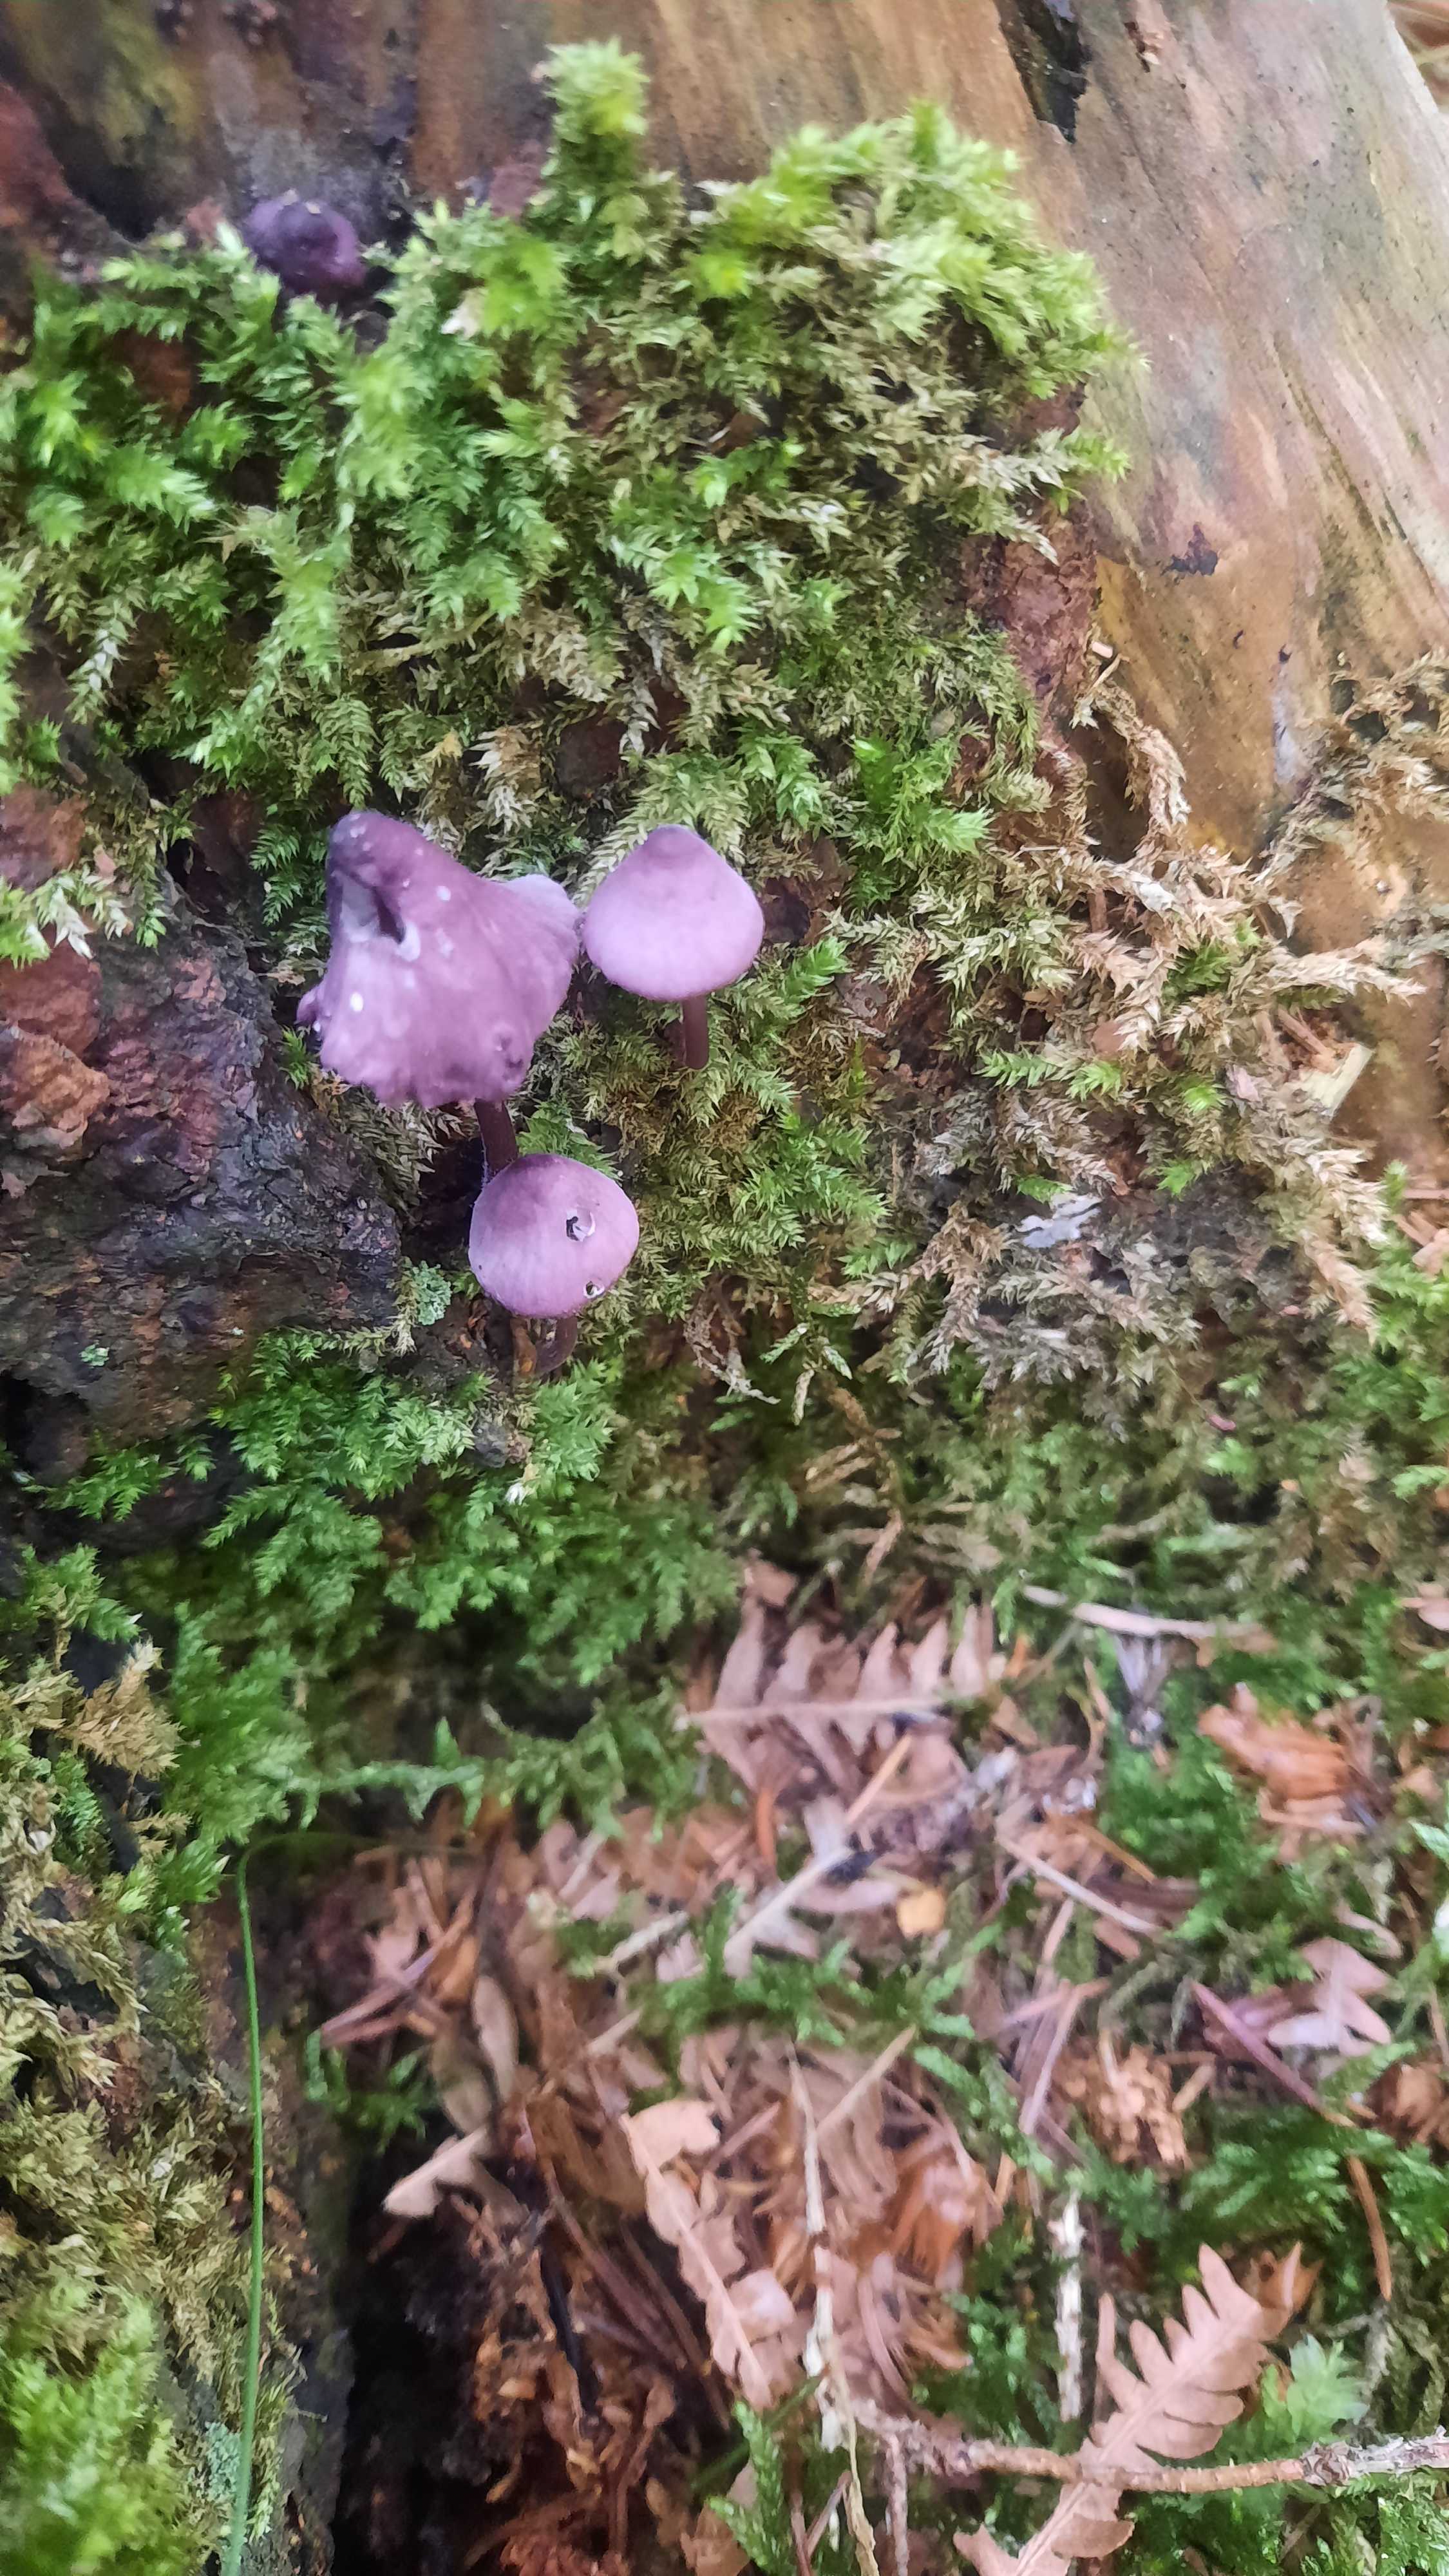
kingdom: Fungi
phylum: Basidiomycota
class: Agaricomycetes
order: Agaricales
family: Mycenaceae
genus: Mycena
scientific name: Mycena purpureofusca
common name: purpur-huesvamp
